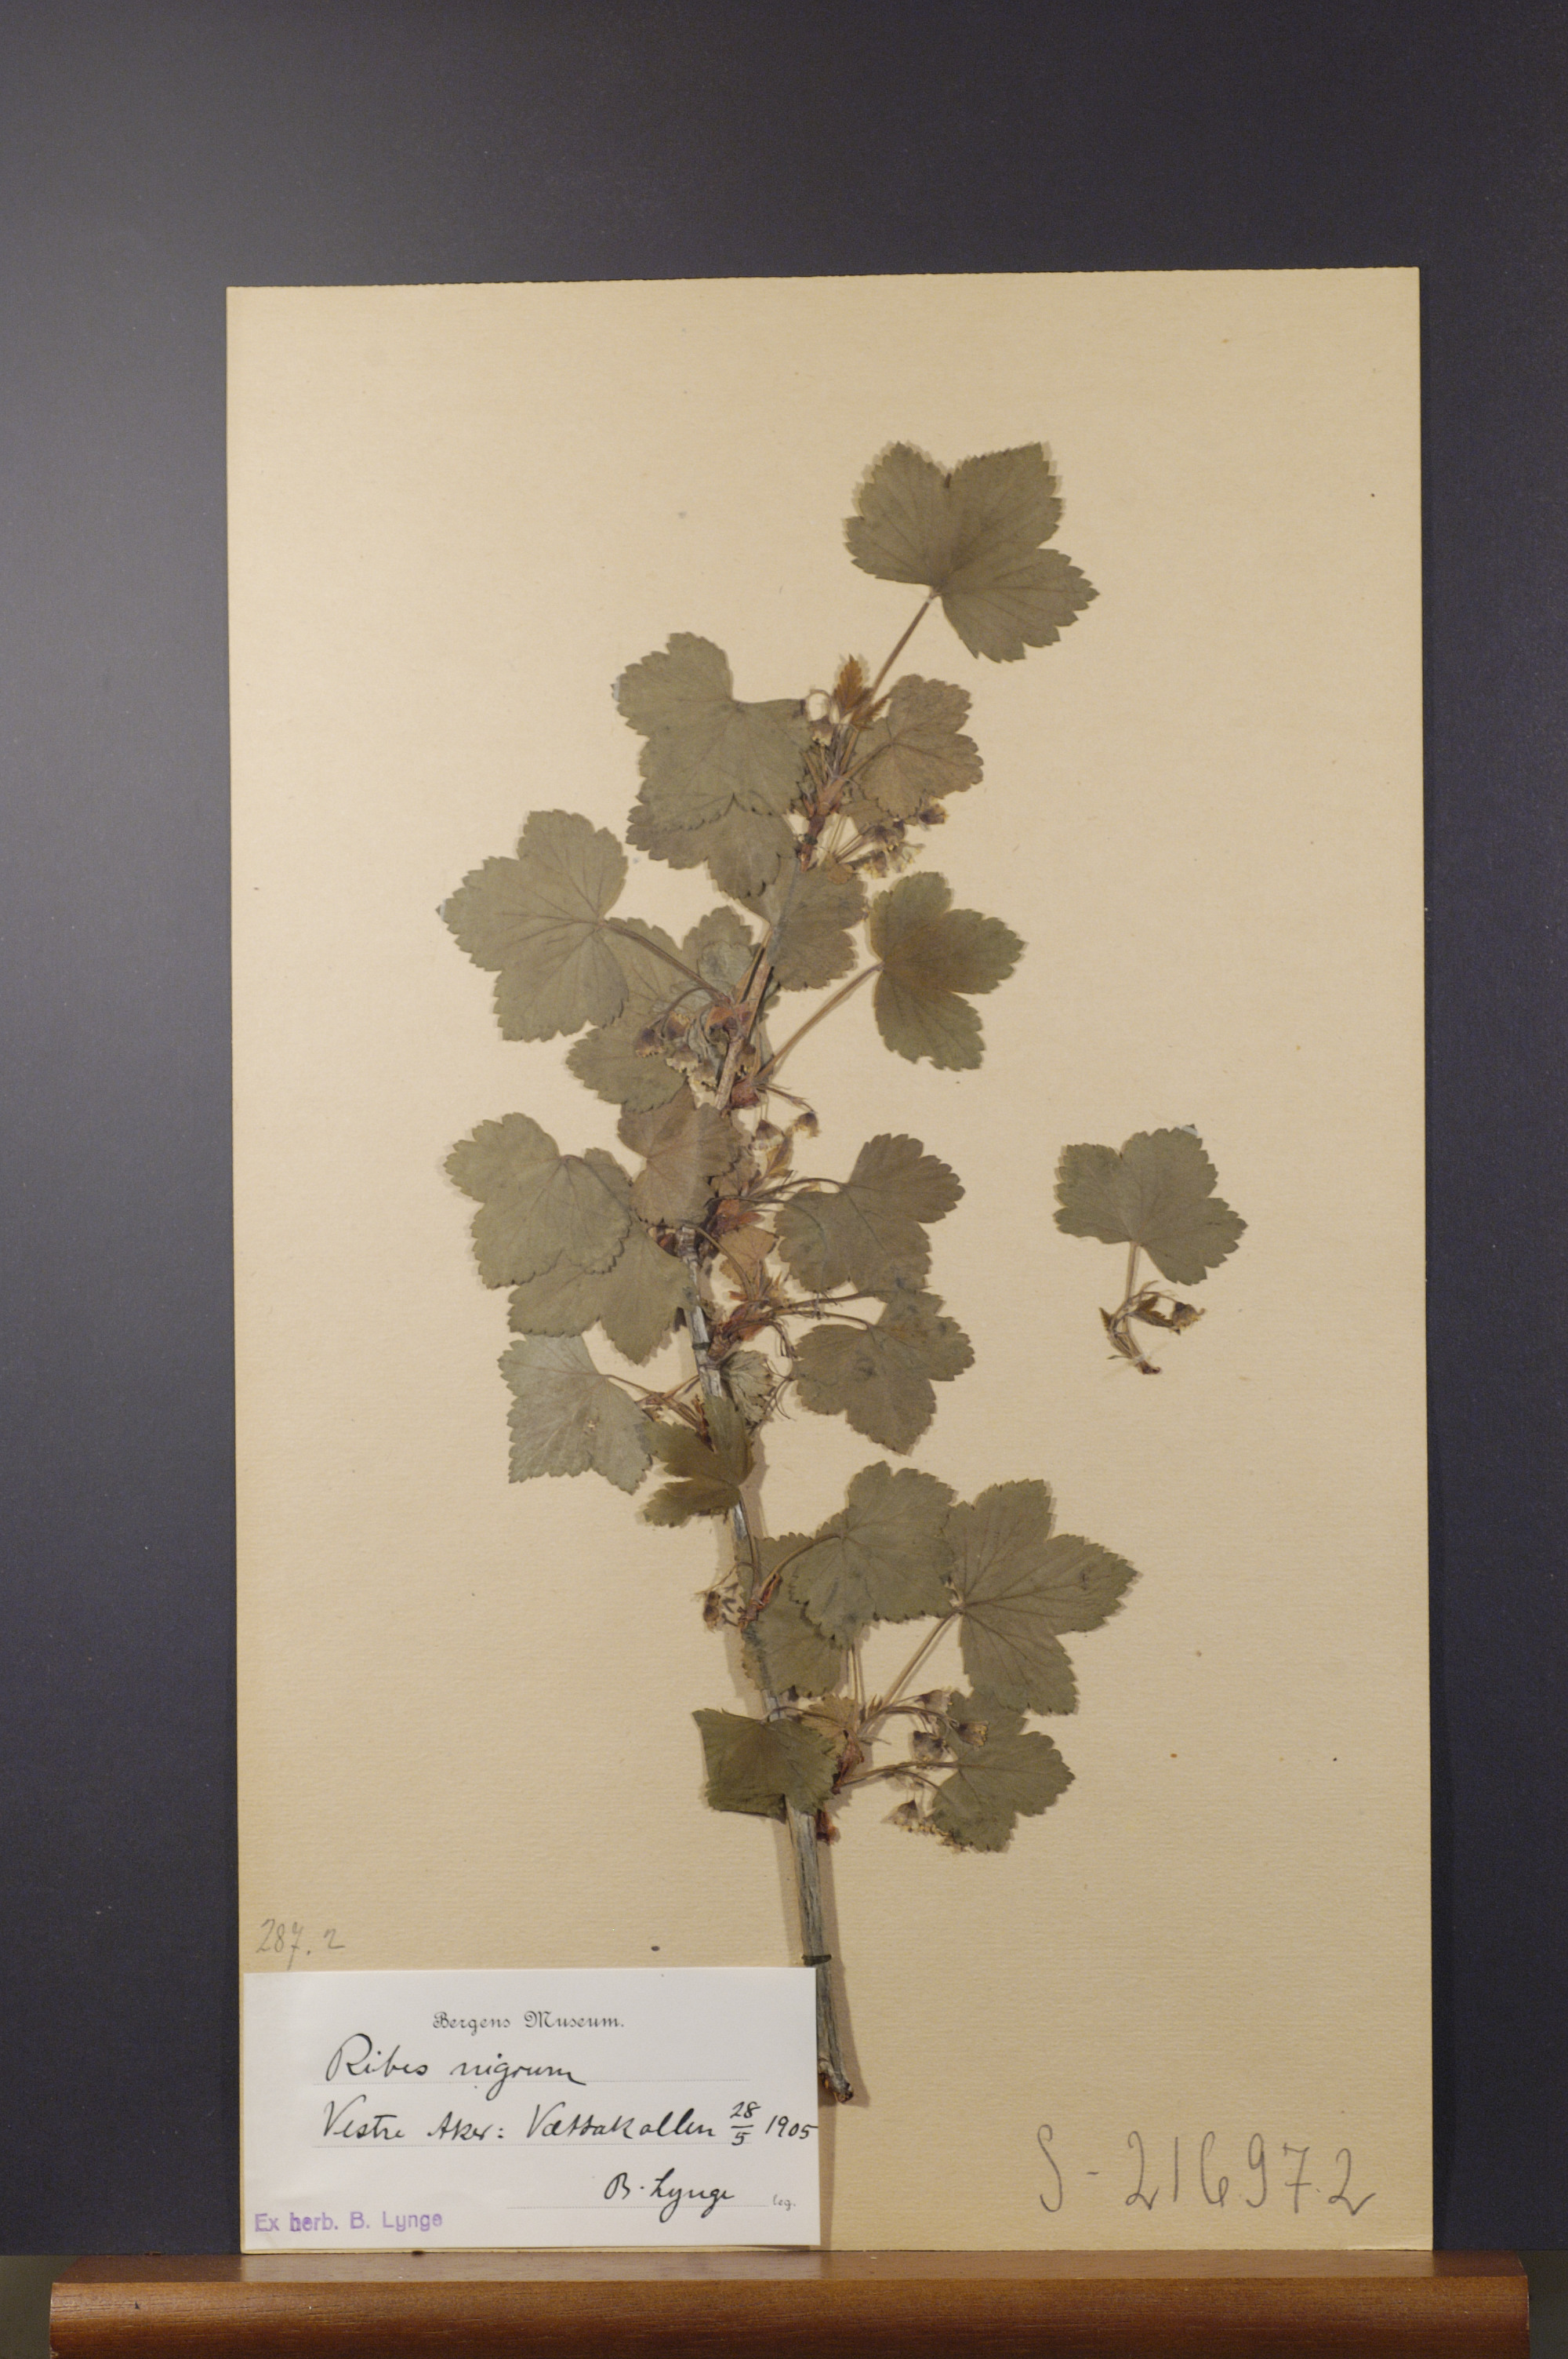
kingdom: Plantae
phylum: Tracheophyta
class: Magnoliopsida
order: Saxifragales
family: Grossulariaceae
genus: Ribes
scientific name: Ribes nigrum
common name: Black currant
